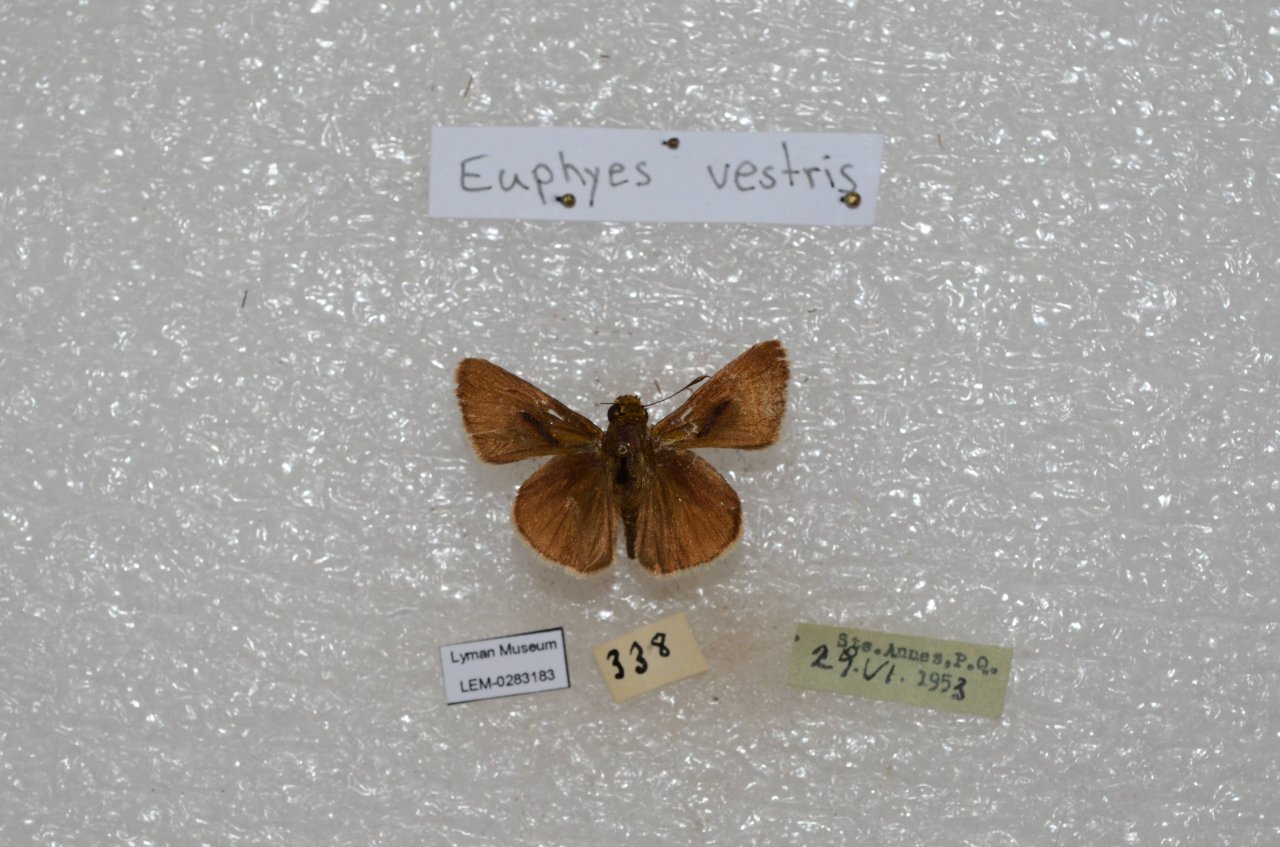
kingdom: Animalia
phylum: Arthropoda
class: Insecta
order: Lepidoptera
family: Hesperiidae
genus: Euphyes
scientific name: Euphyes vestris
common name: Dun Skipper
